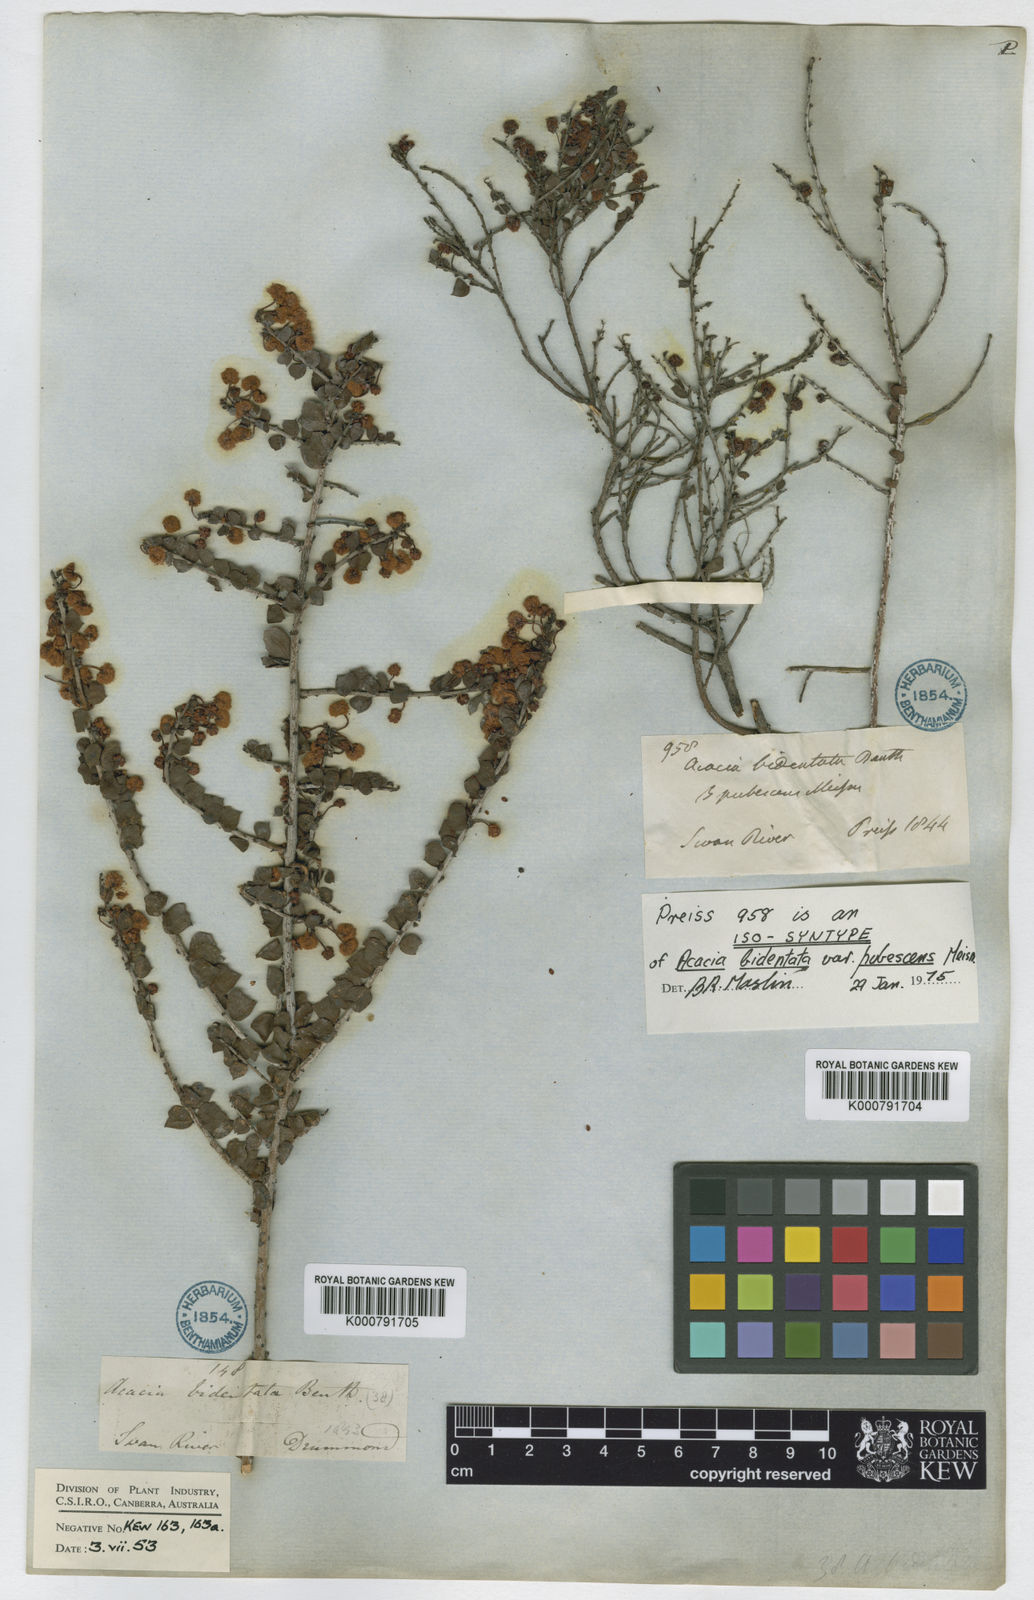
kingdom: Plantae
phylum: Tracheophyta
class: Magnoliopsida
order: Fabales
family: Fabaceae
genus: Acacia
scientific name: Acacia bidentata
